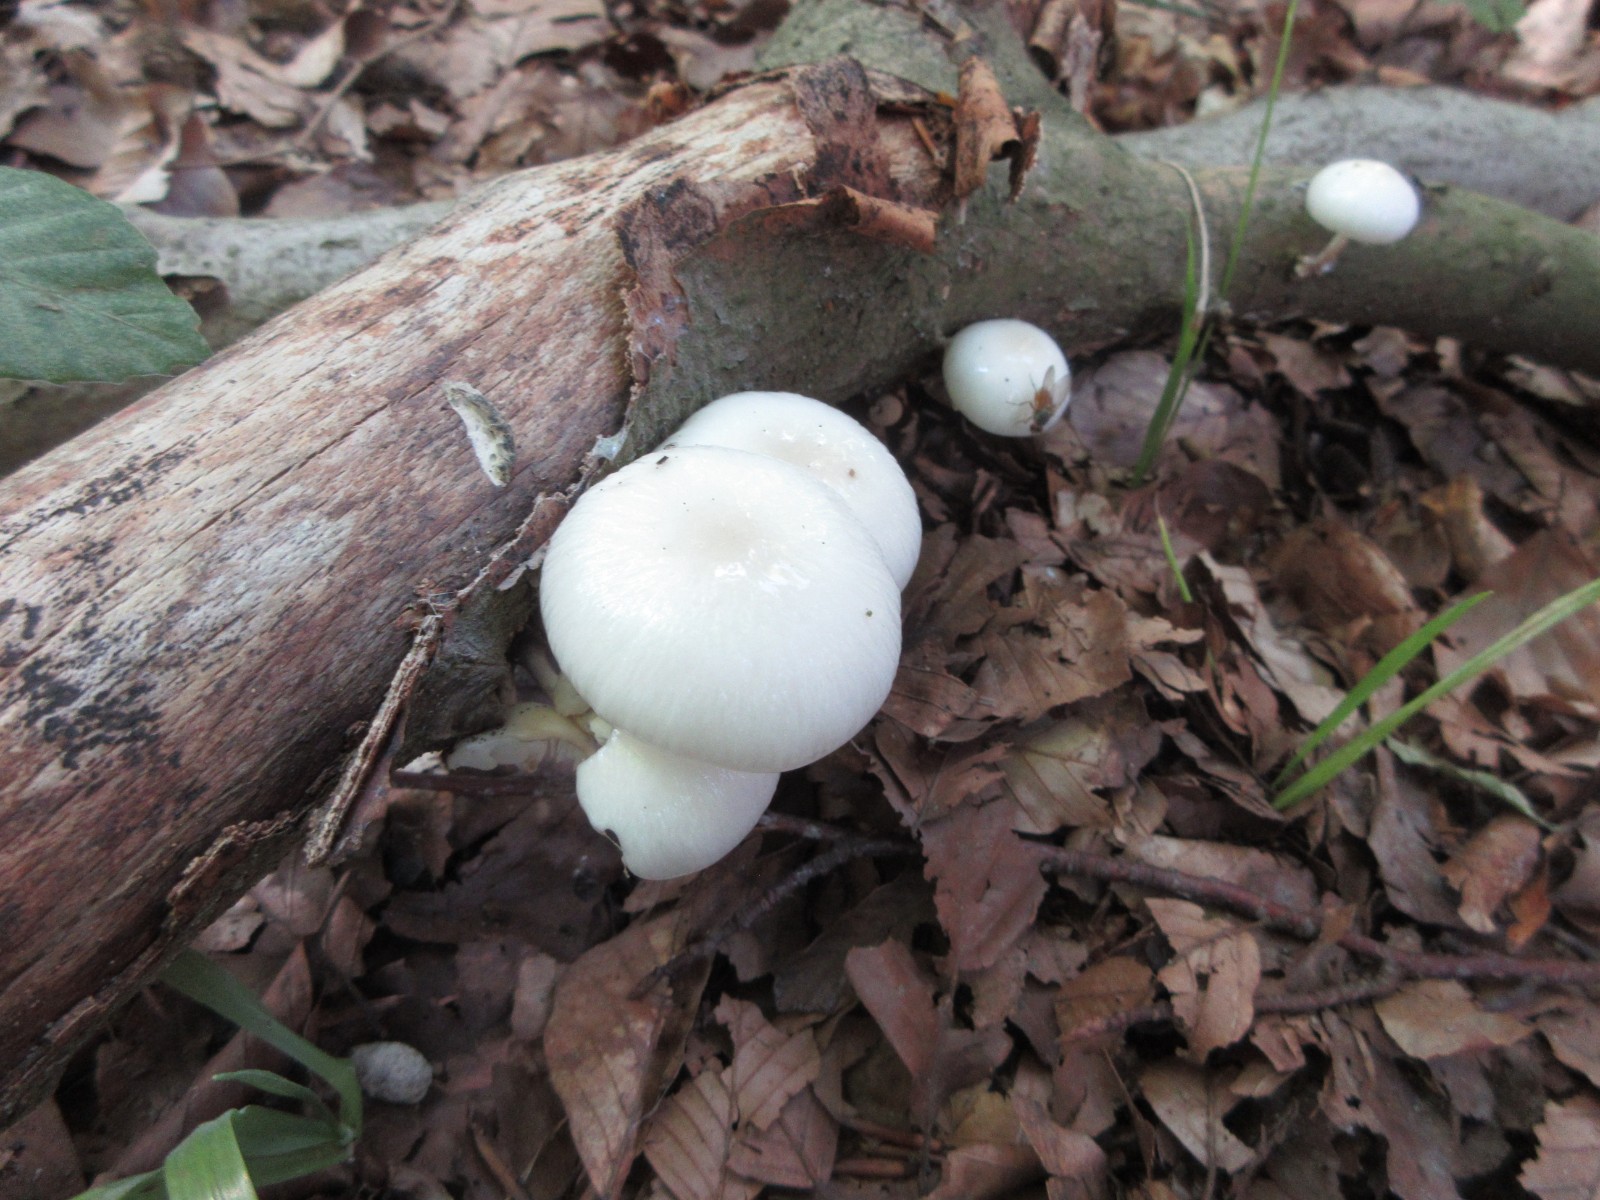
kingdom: Fungi
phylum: Basidiomycota
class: Agaricomycetes
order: Agaricales
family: Physalacriaceae
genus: Mucidula
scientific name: Mucidula mucida
